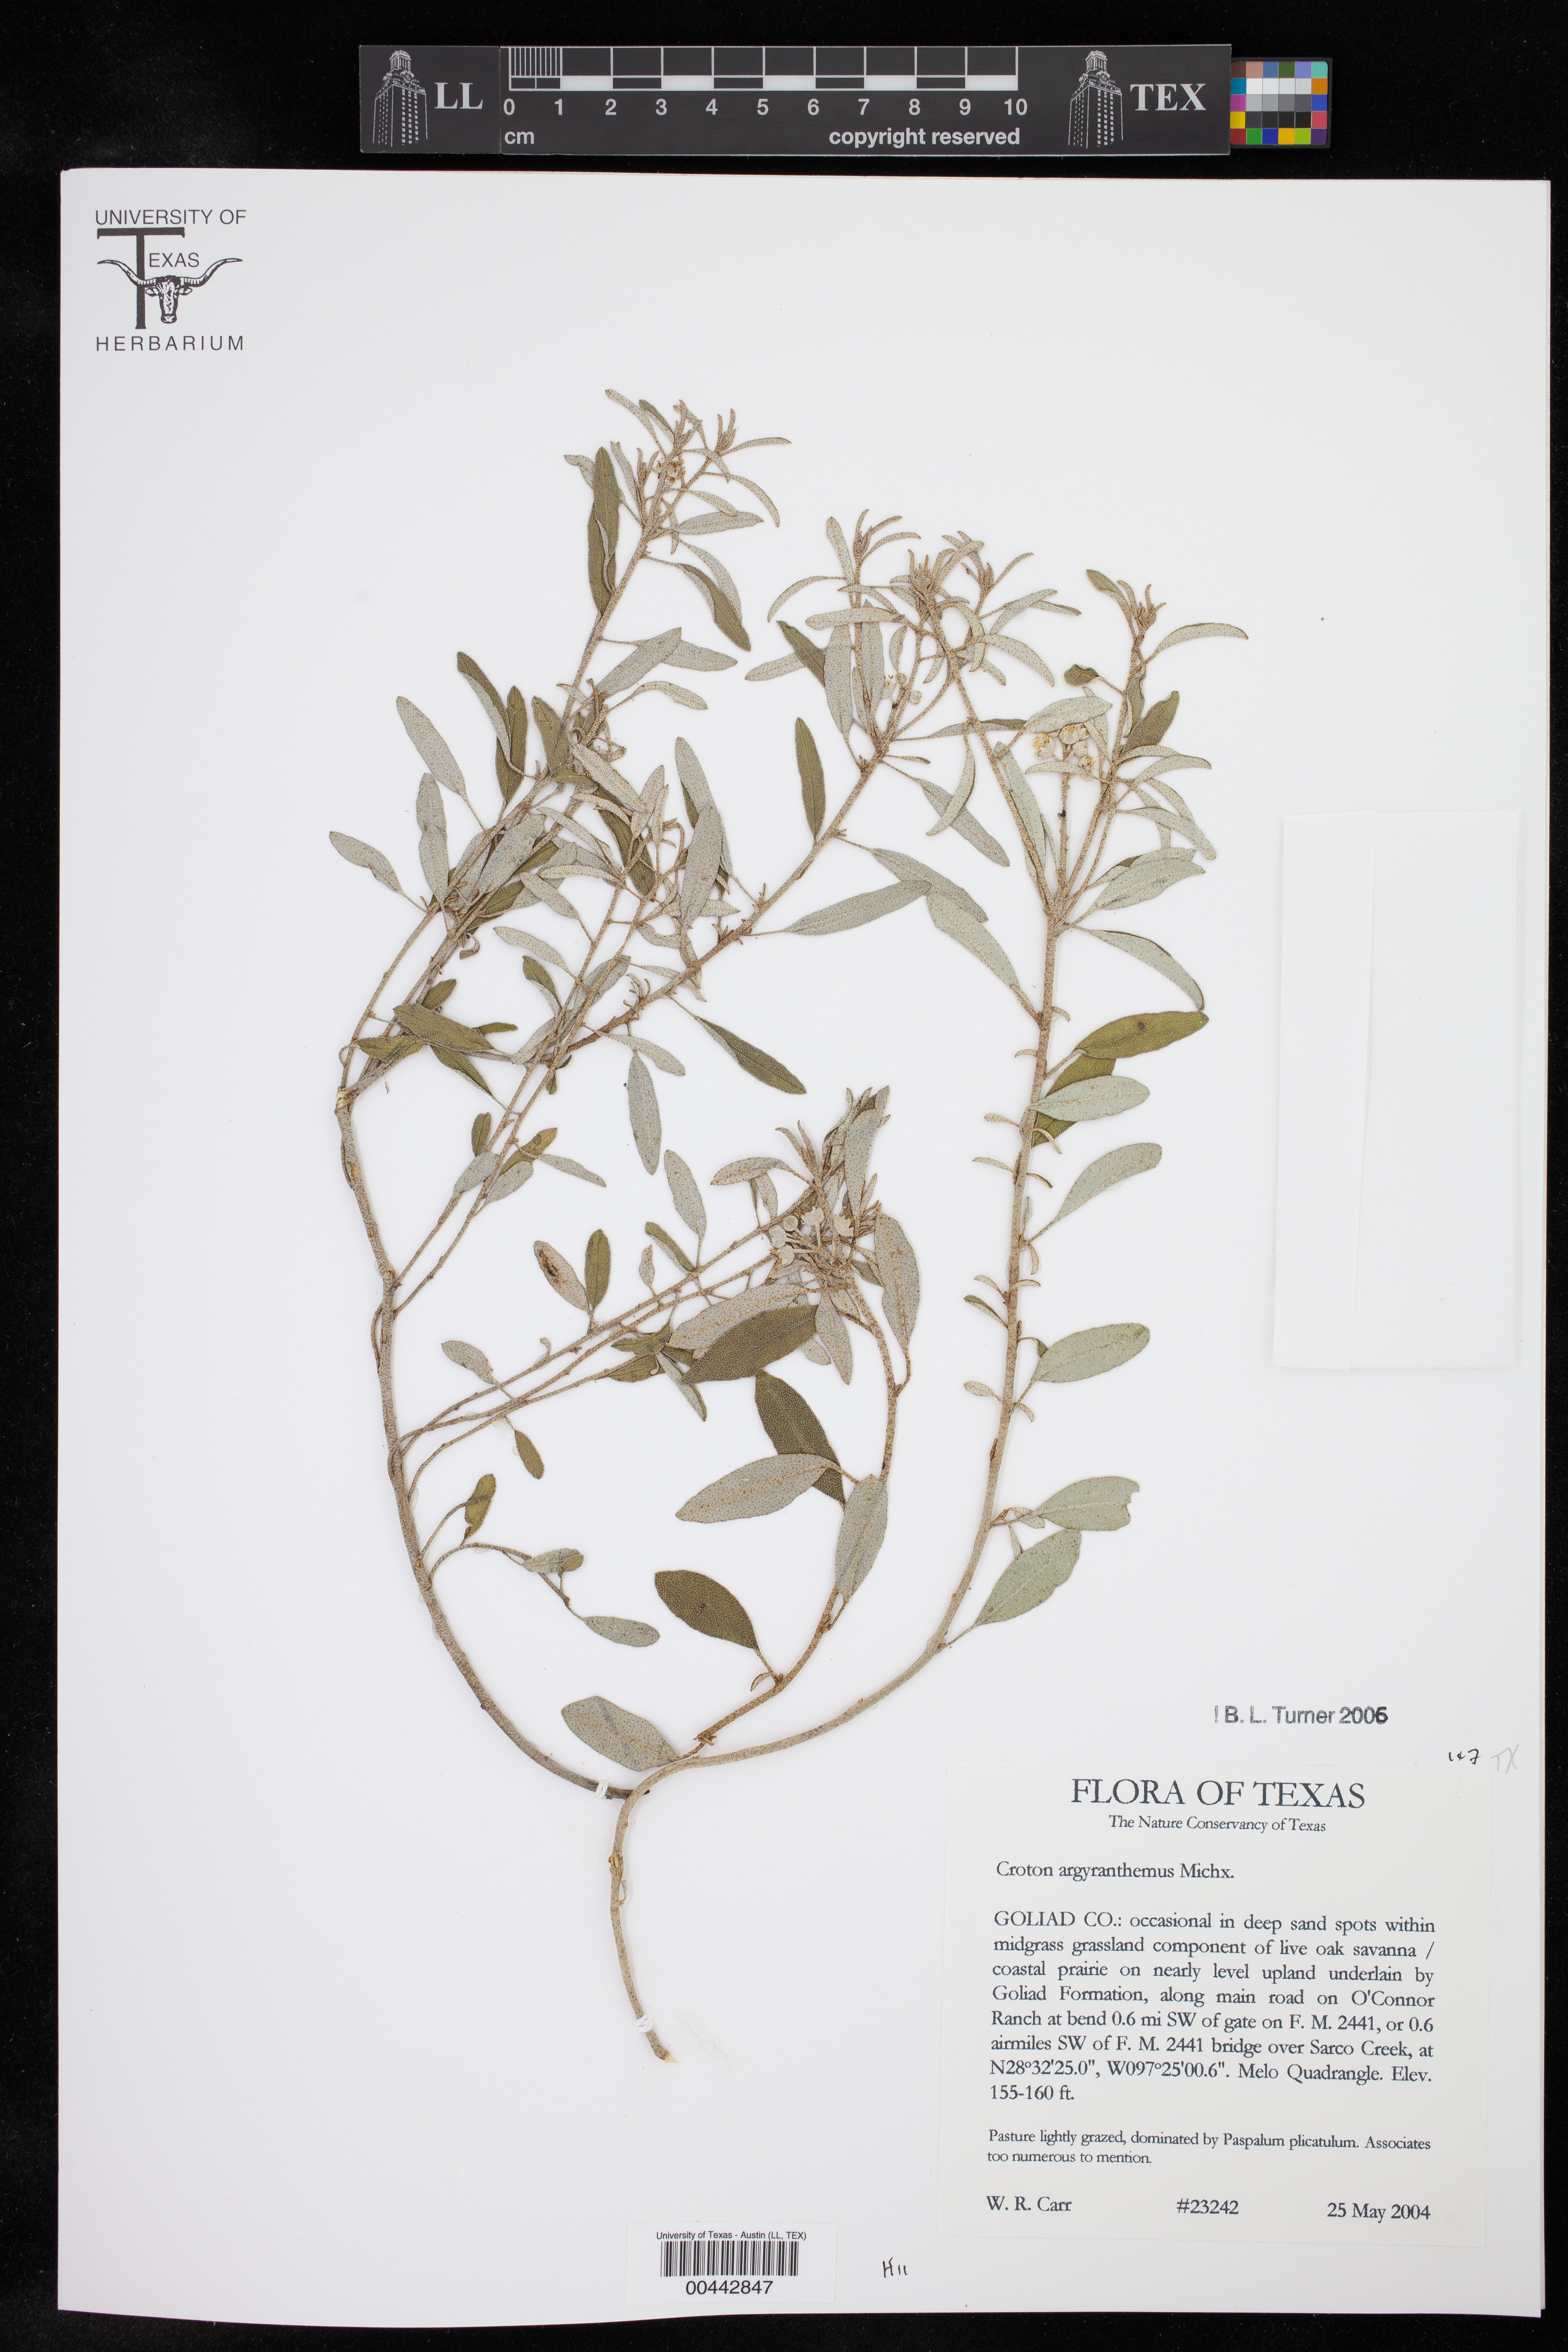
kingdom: Plantae
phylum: Tracheophyta
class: Magnoliopsida
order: Malpighiales
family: Euphorbiaceae
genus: Croton
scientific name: Croton argyranthemus
